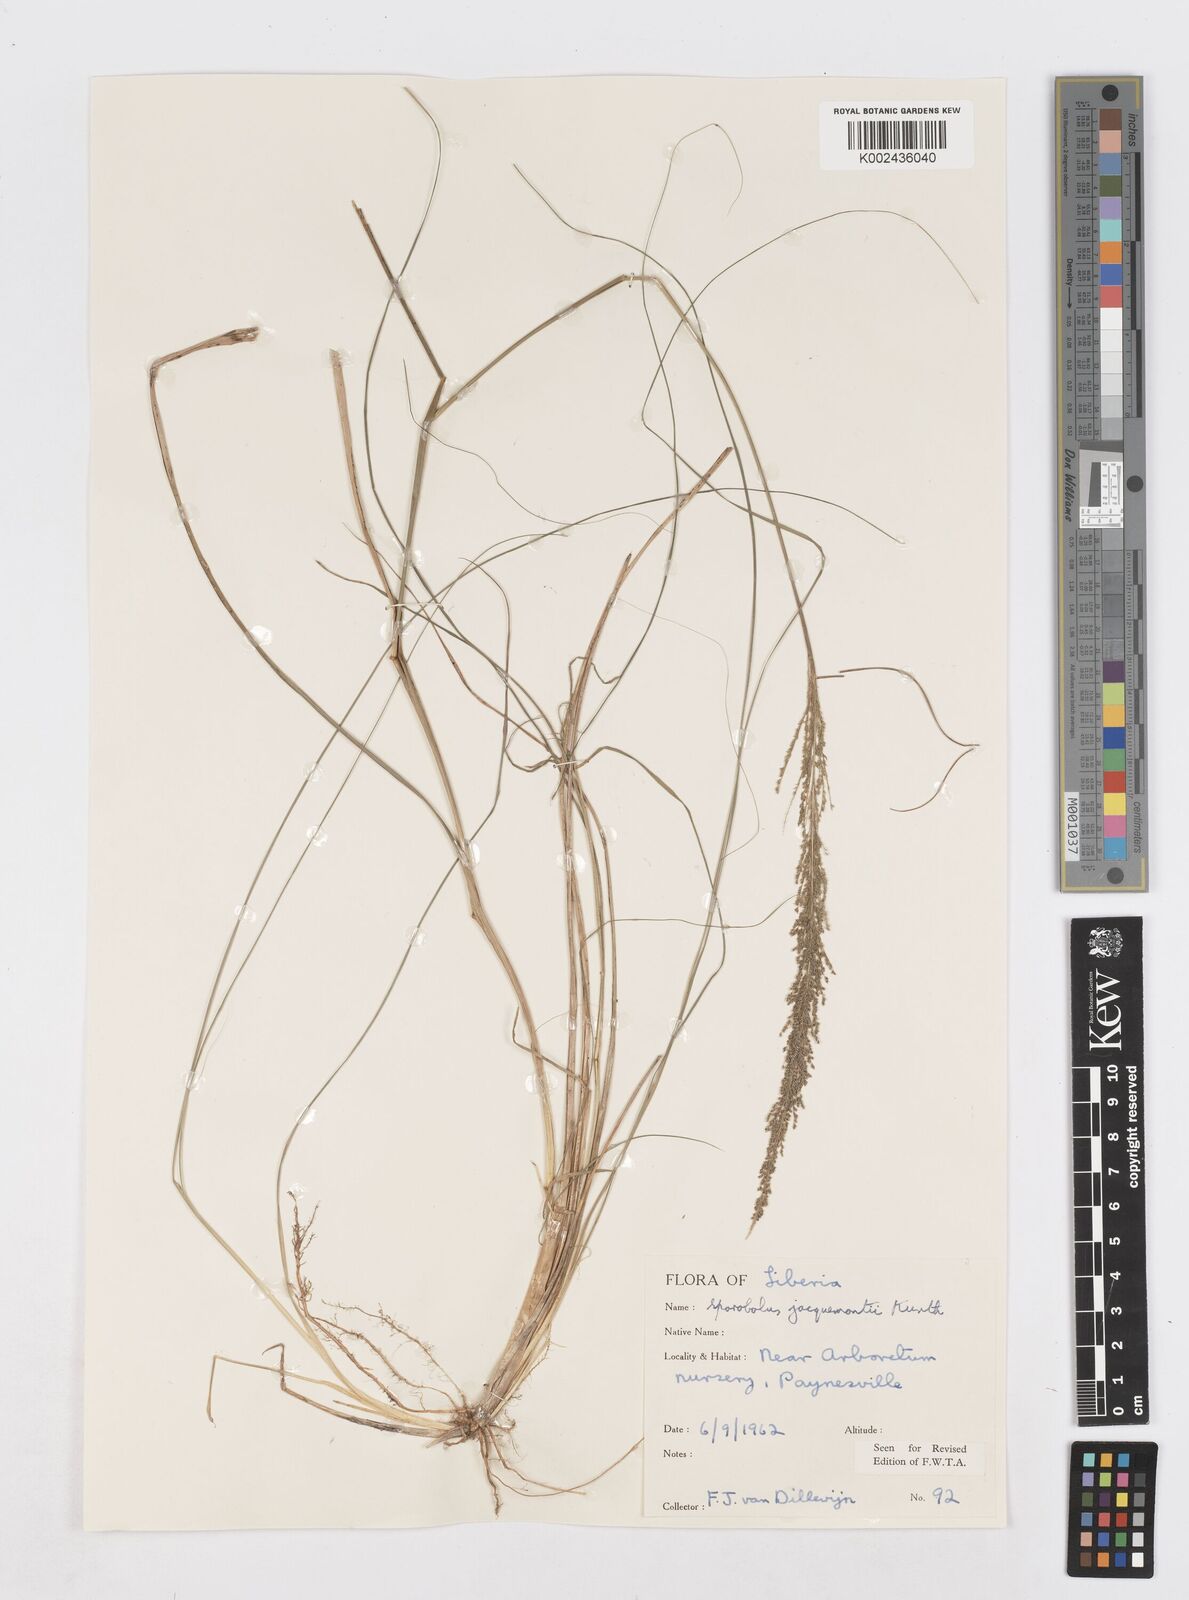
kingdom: Plantae
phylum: Tracheophyta
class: Liliopsida
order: Poales
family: Poaceae
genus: Sporobolus
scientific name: Sporobolus pyramidalis
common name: West indian dropseed
